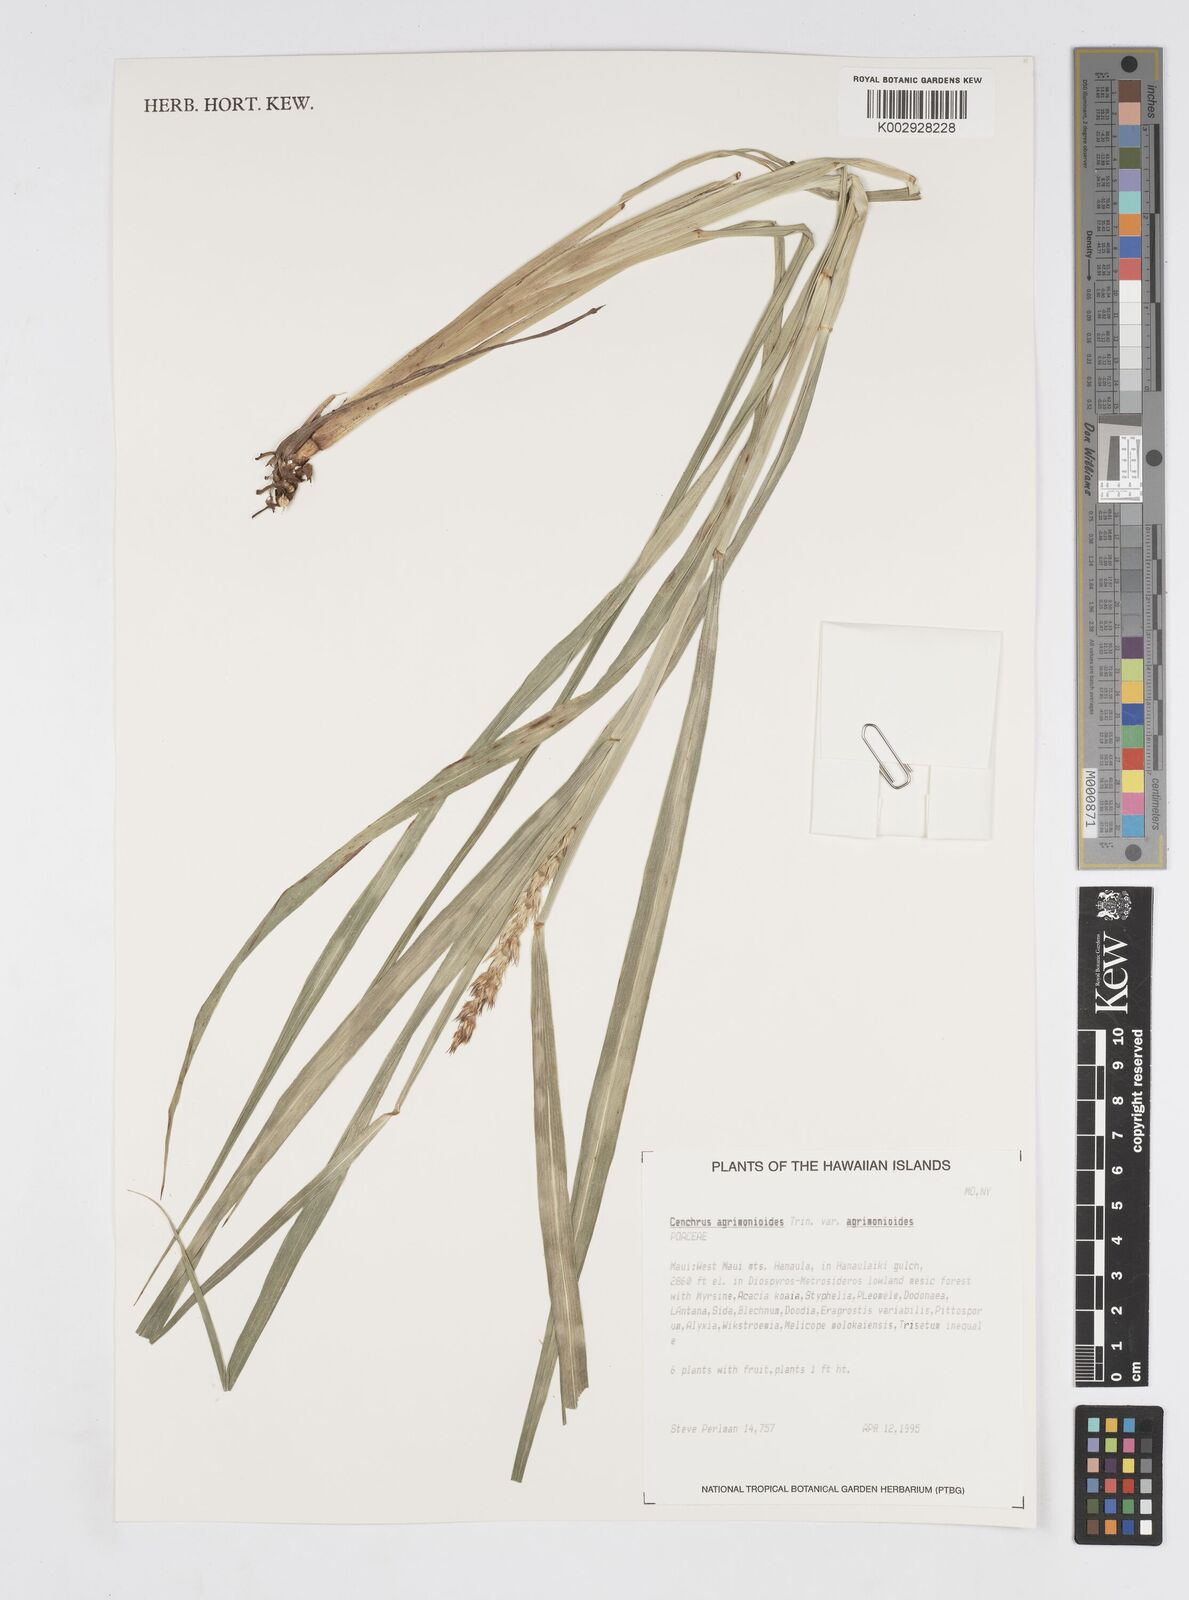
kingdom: Plantae
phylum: Tracheophyta
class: Liliopsida
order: Poales
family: Poaceae
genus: Cenchrus
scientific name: Cenchrus agrimonioides
